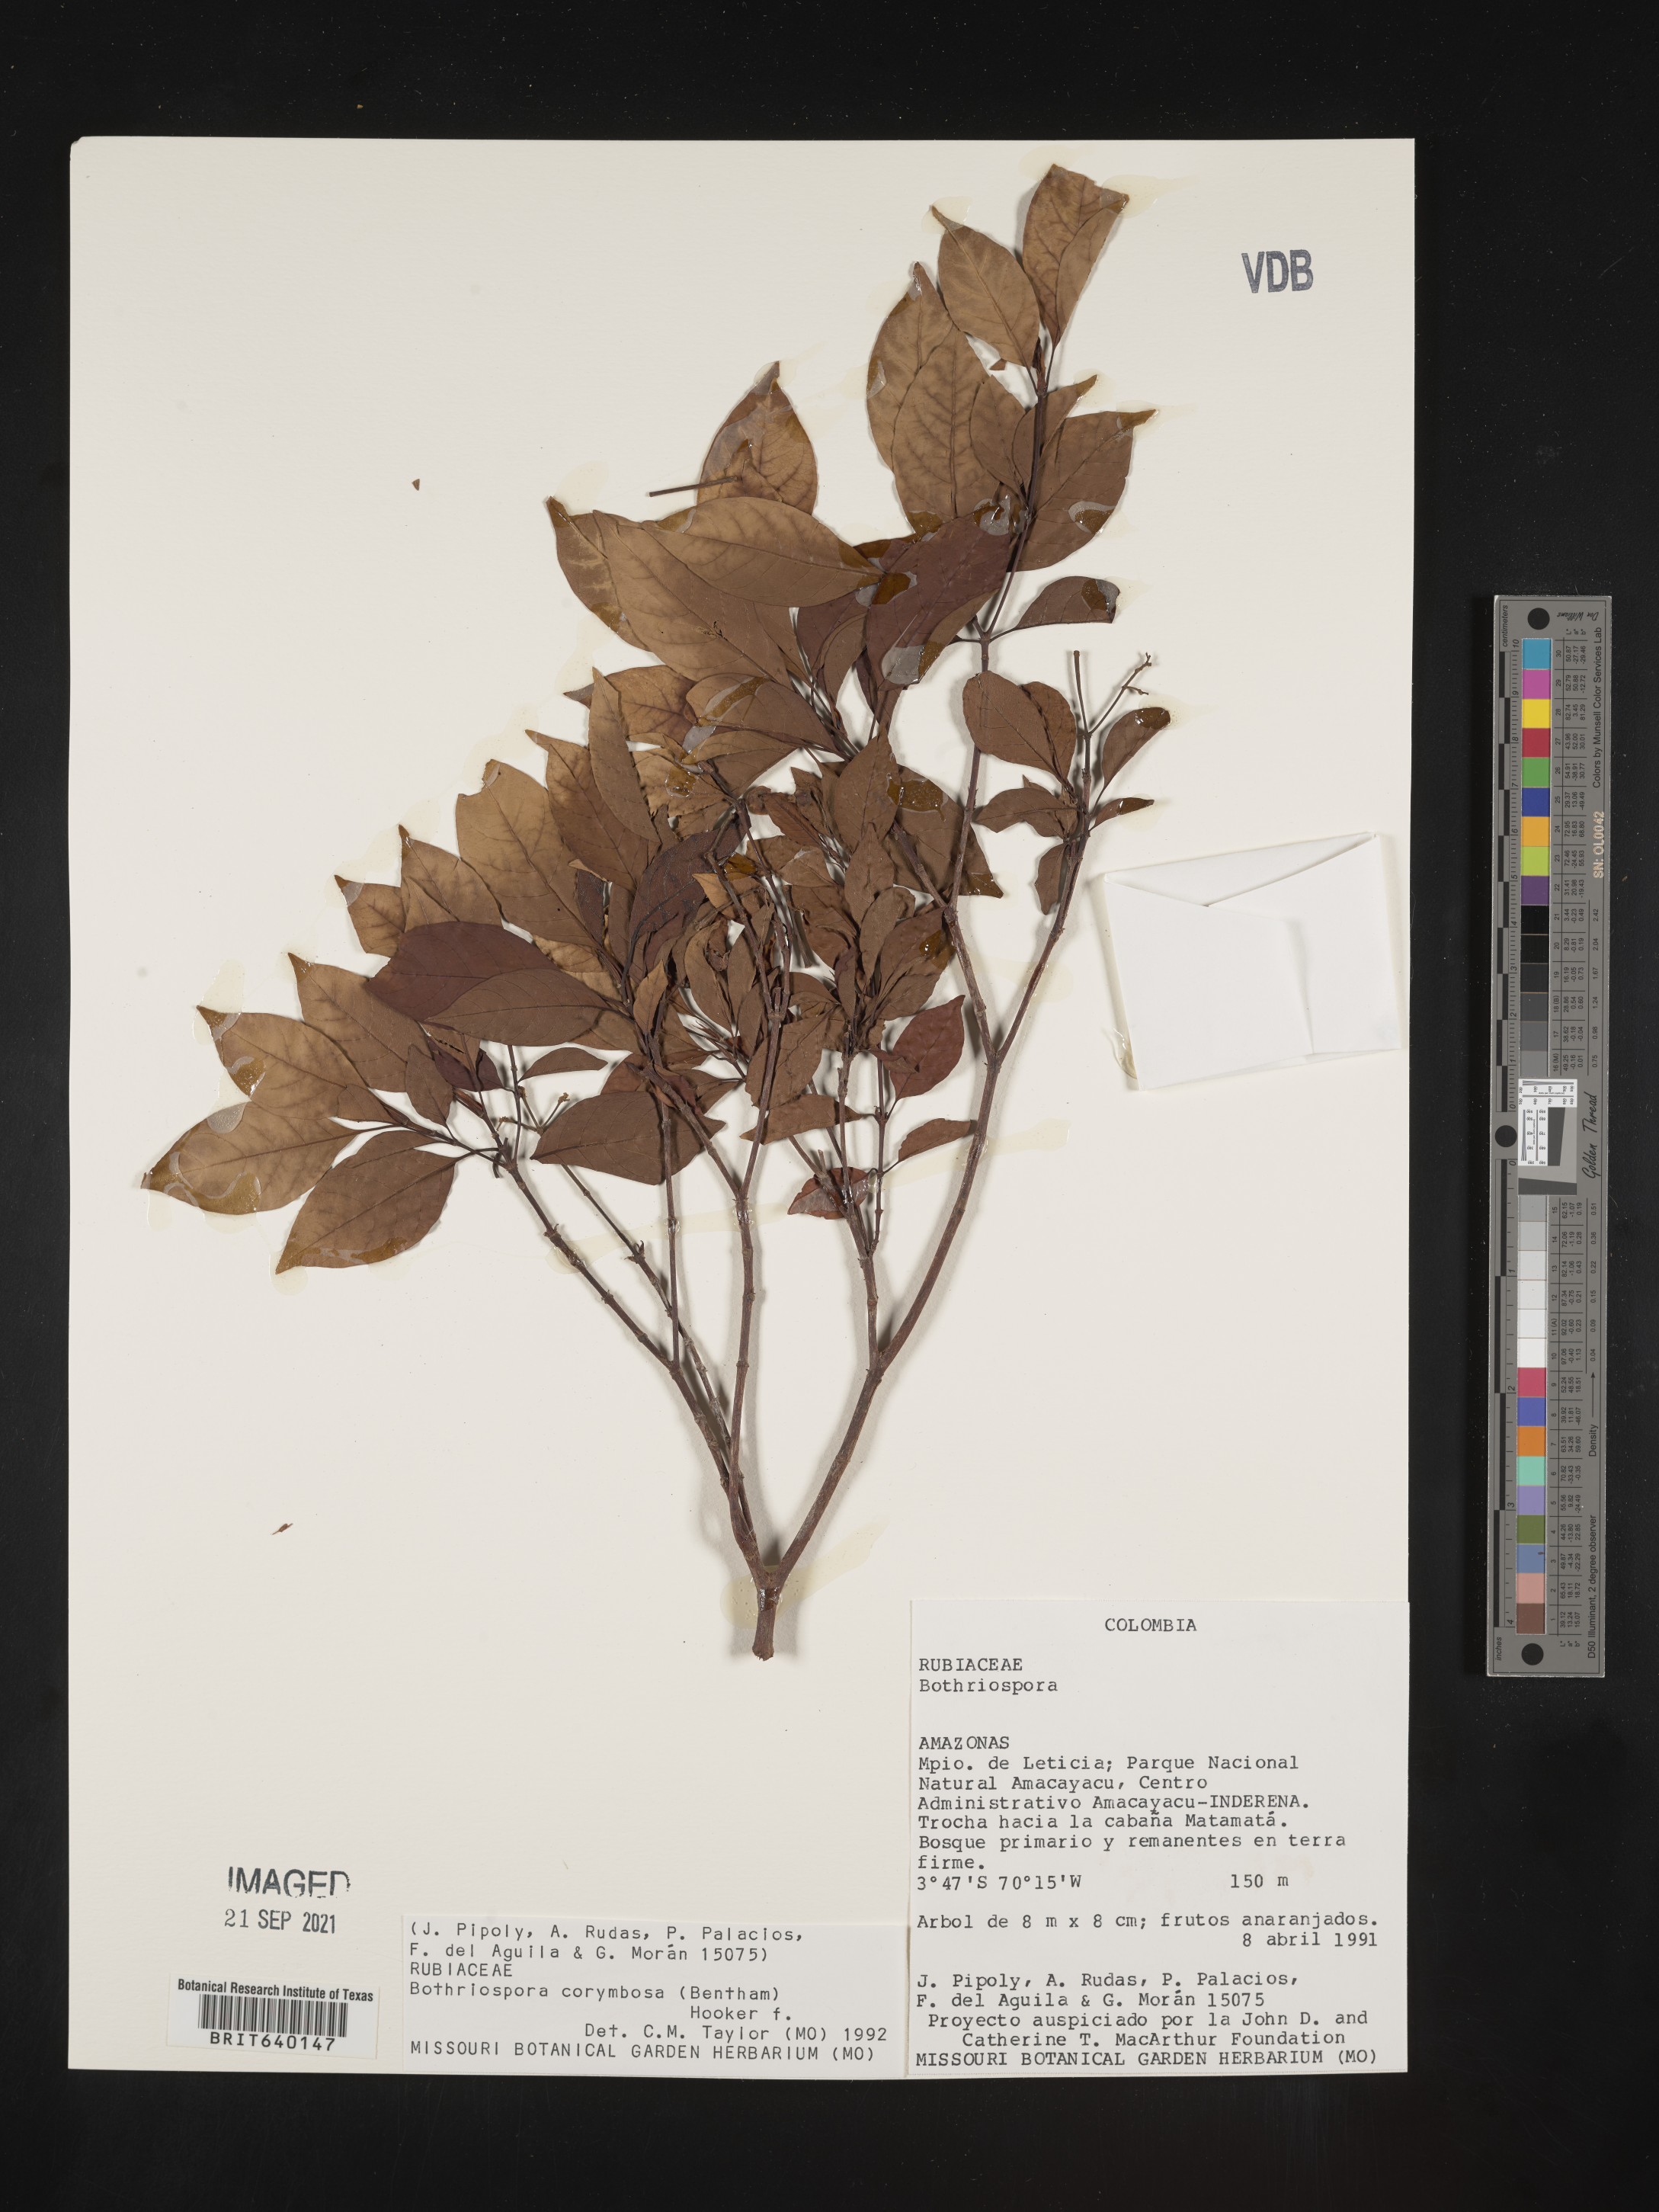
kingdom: Plantae
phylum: Tracheophyta
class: Magnoliopsida
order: Gentianales
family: Rubiaceae
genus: Bothriospora
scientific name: Bothriospora
